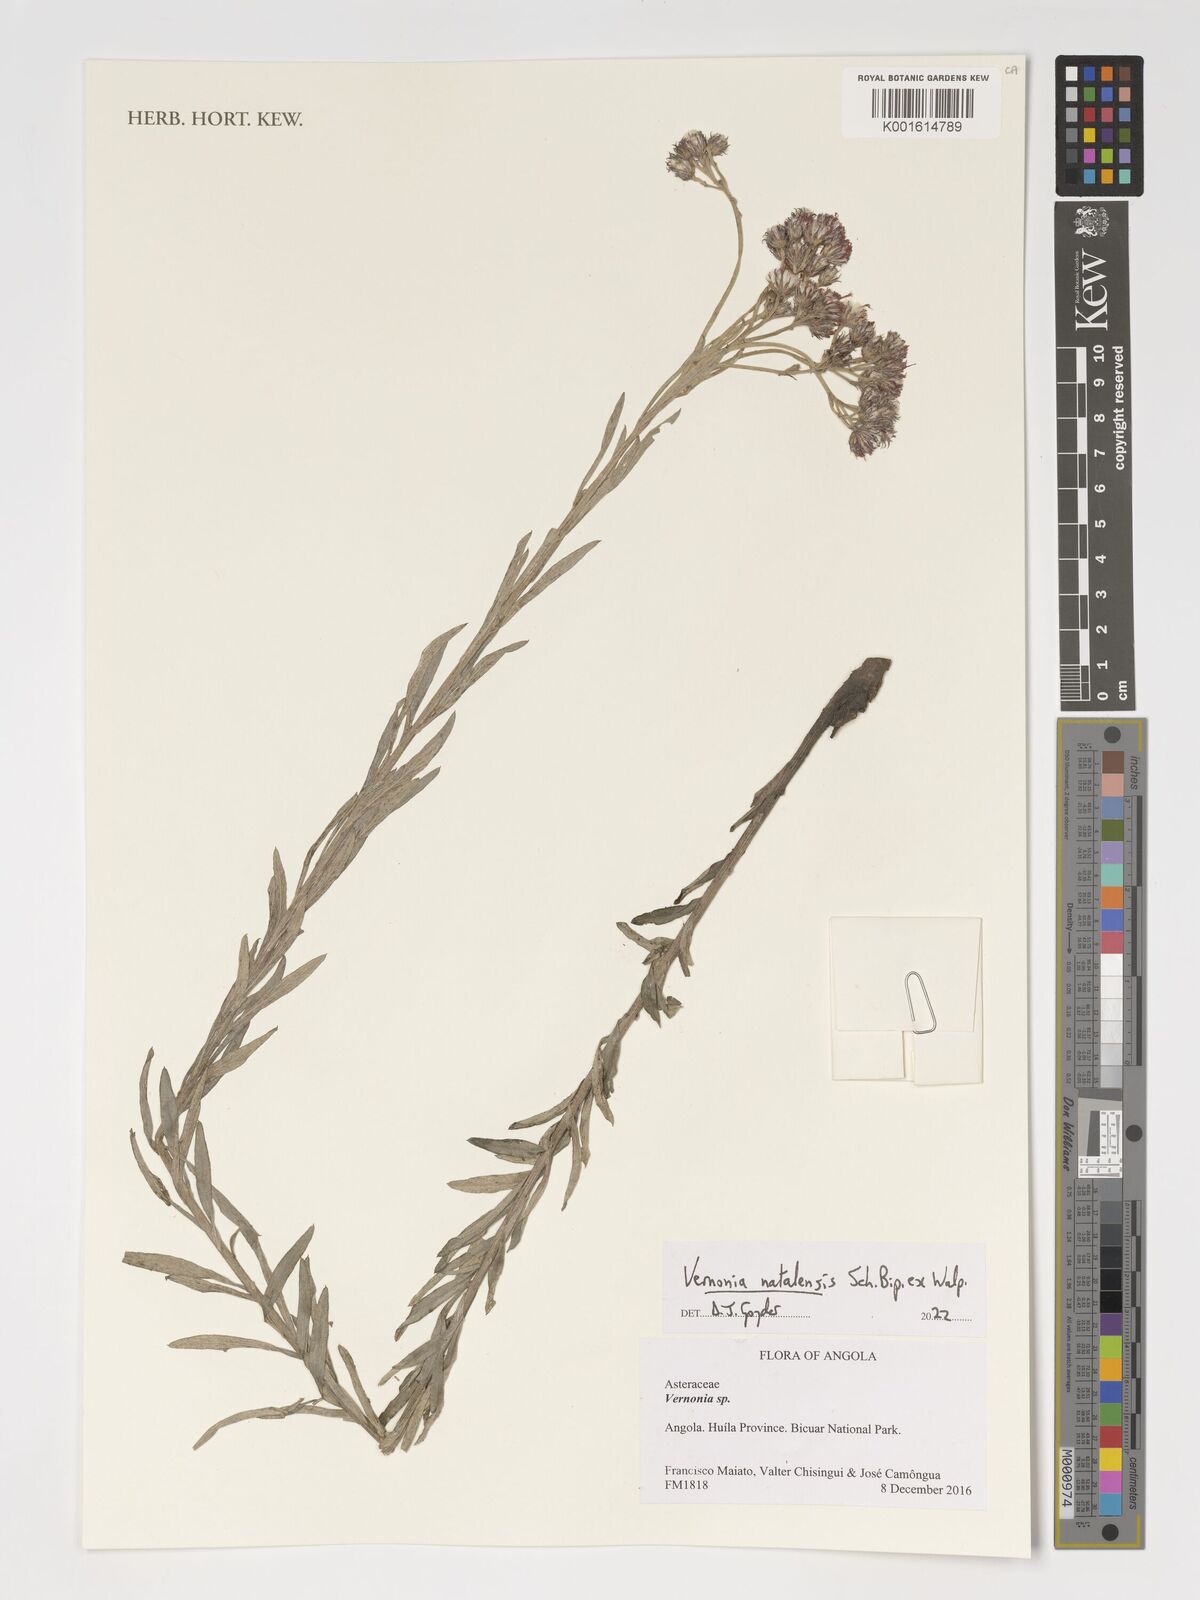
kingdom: Plantae
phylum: Tracheophyta
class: Magnoliopsida
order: Asterales
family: Asteraceae
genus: Hilliardiella
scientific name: Hilliardiella aristata
